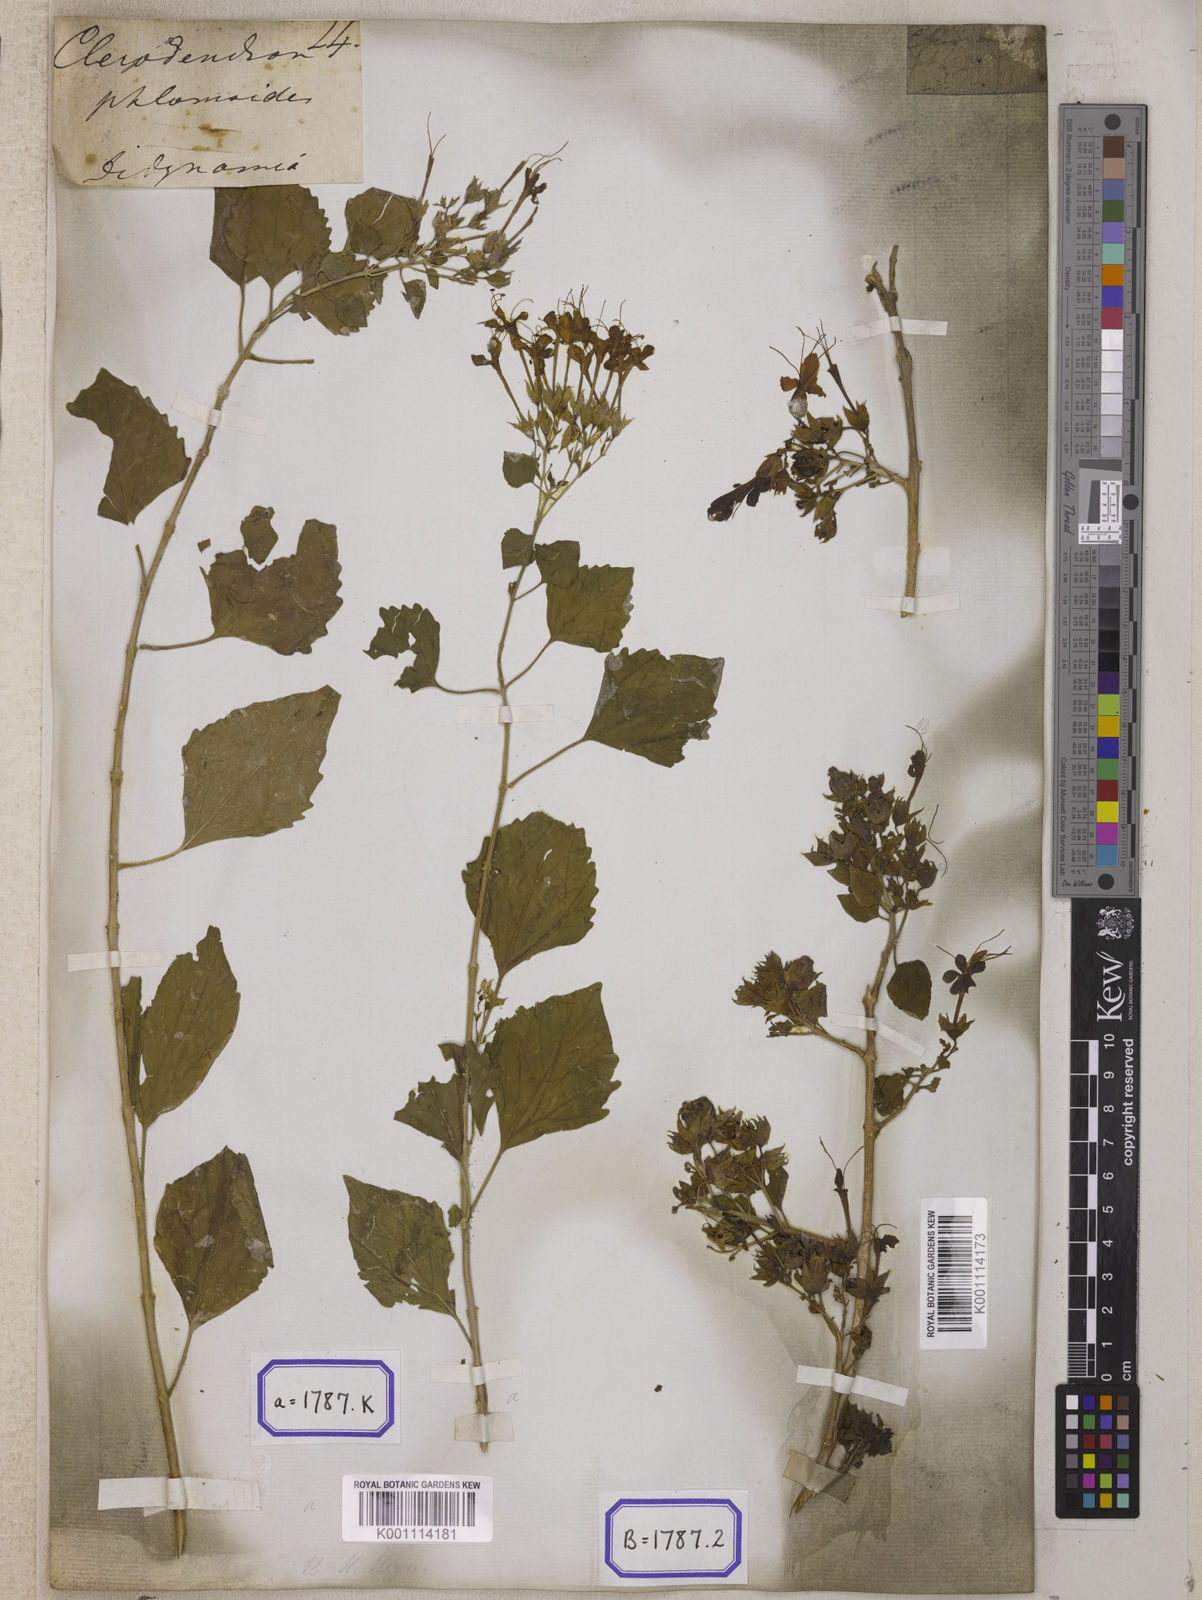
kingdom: Plantae
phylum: Tracheophyta
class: Magnoliopsida
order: Lamiales
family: Lamiaceae
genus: Clerodendrum
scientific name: Clerodendrum
